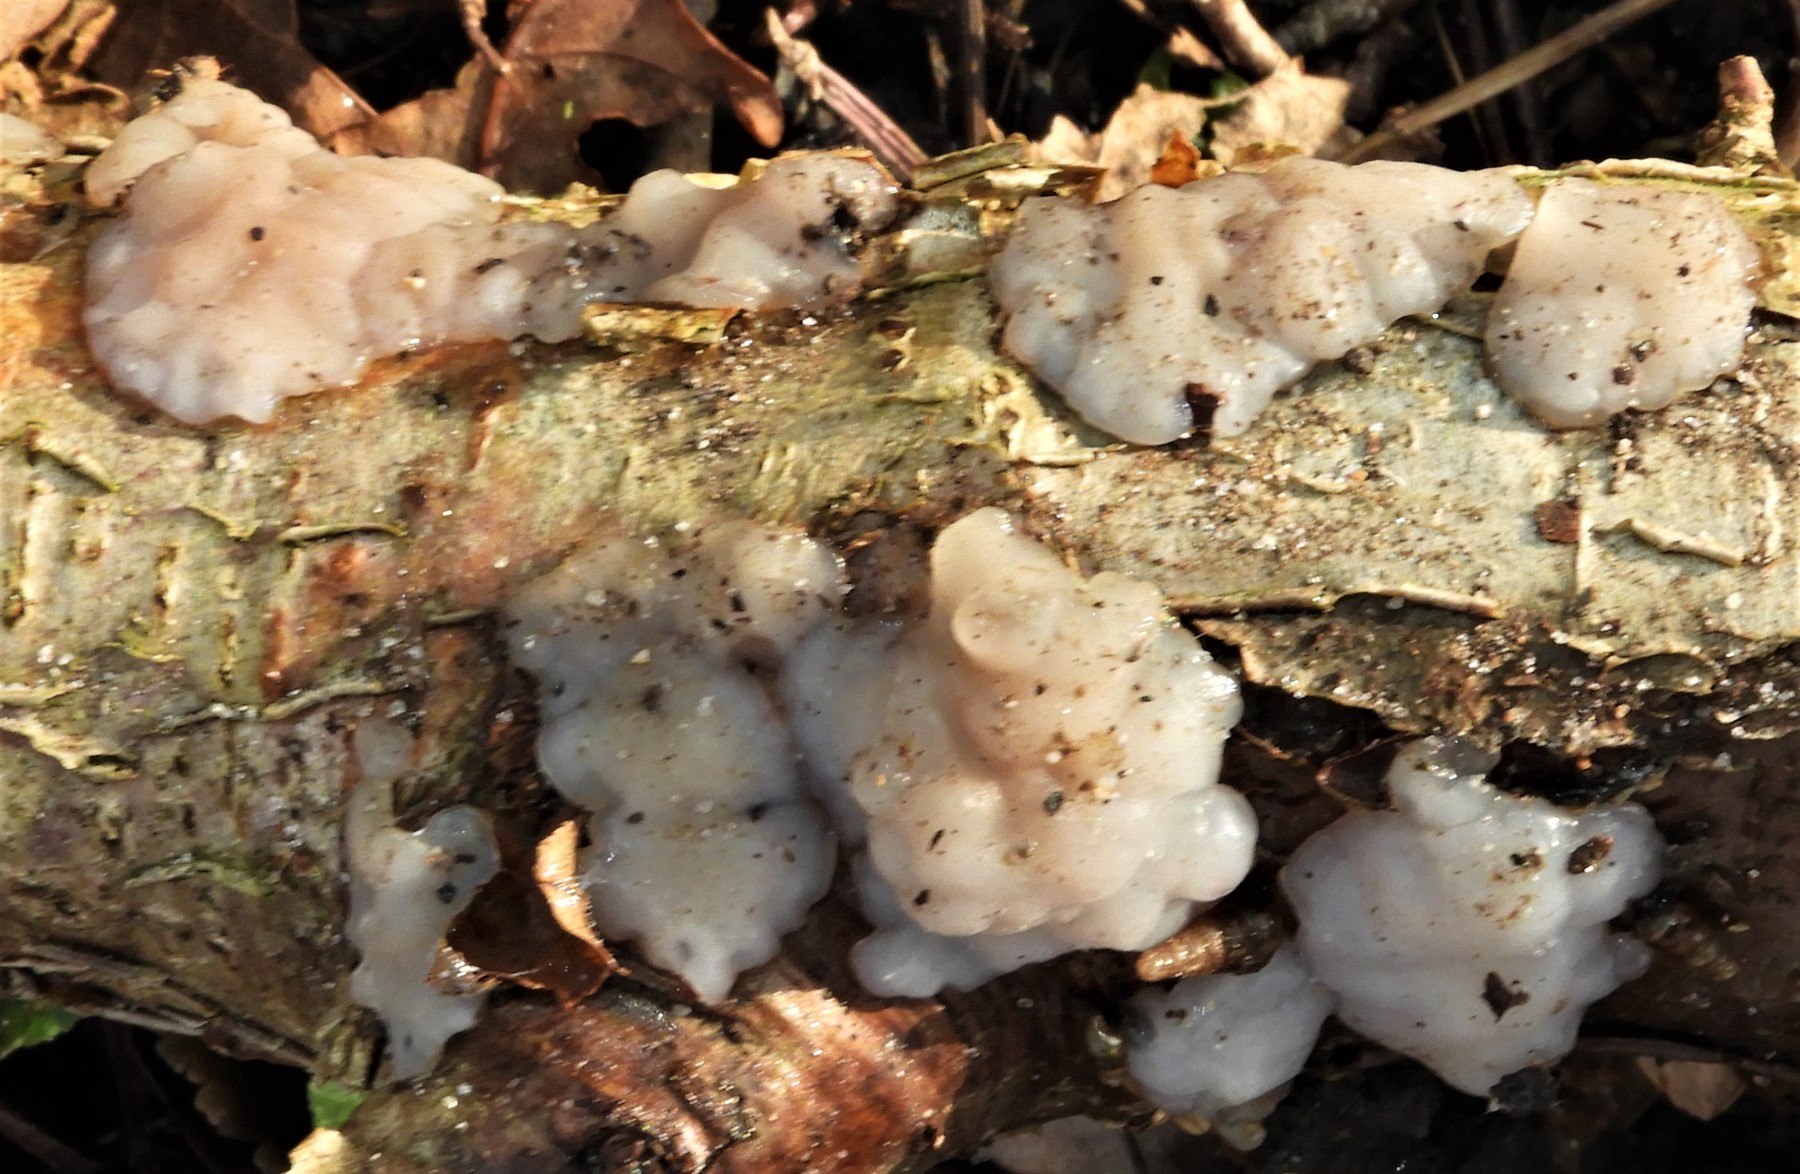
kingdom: Fungi
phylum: Basidiomycota
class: Agaricomycetes
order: Auriculariales
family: Auriculariaceae
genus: Exidia
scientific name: Exidia thuretiana
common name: hvidlig bævretop
